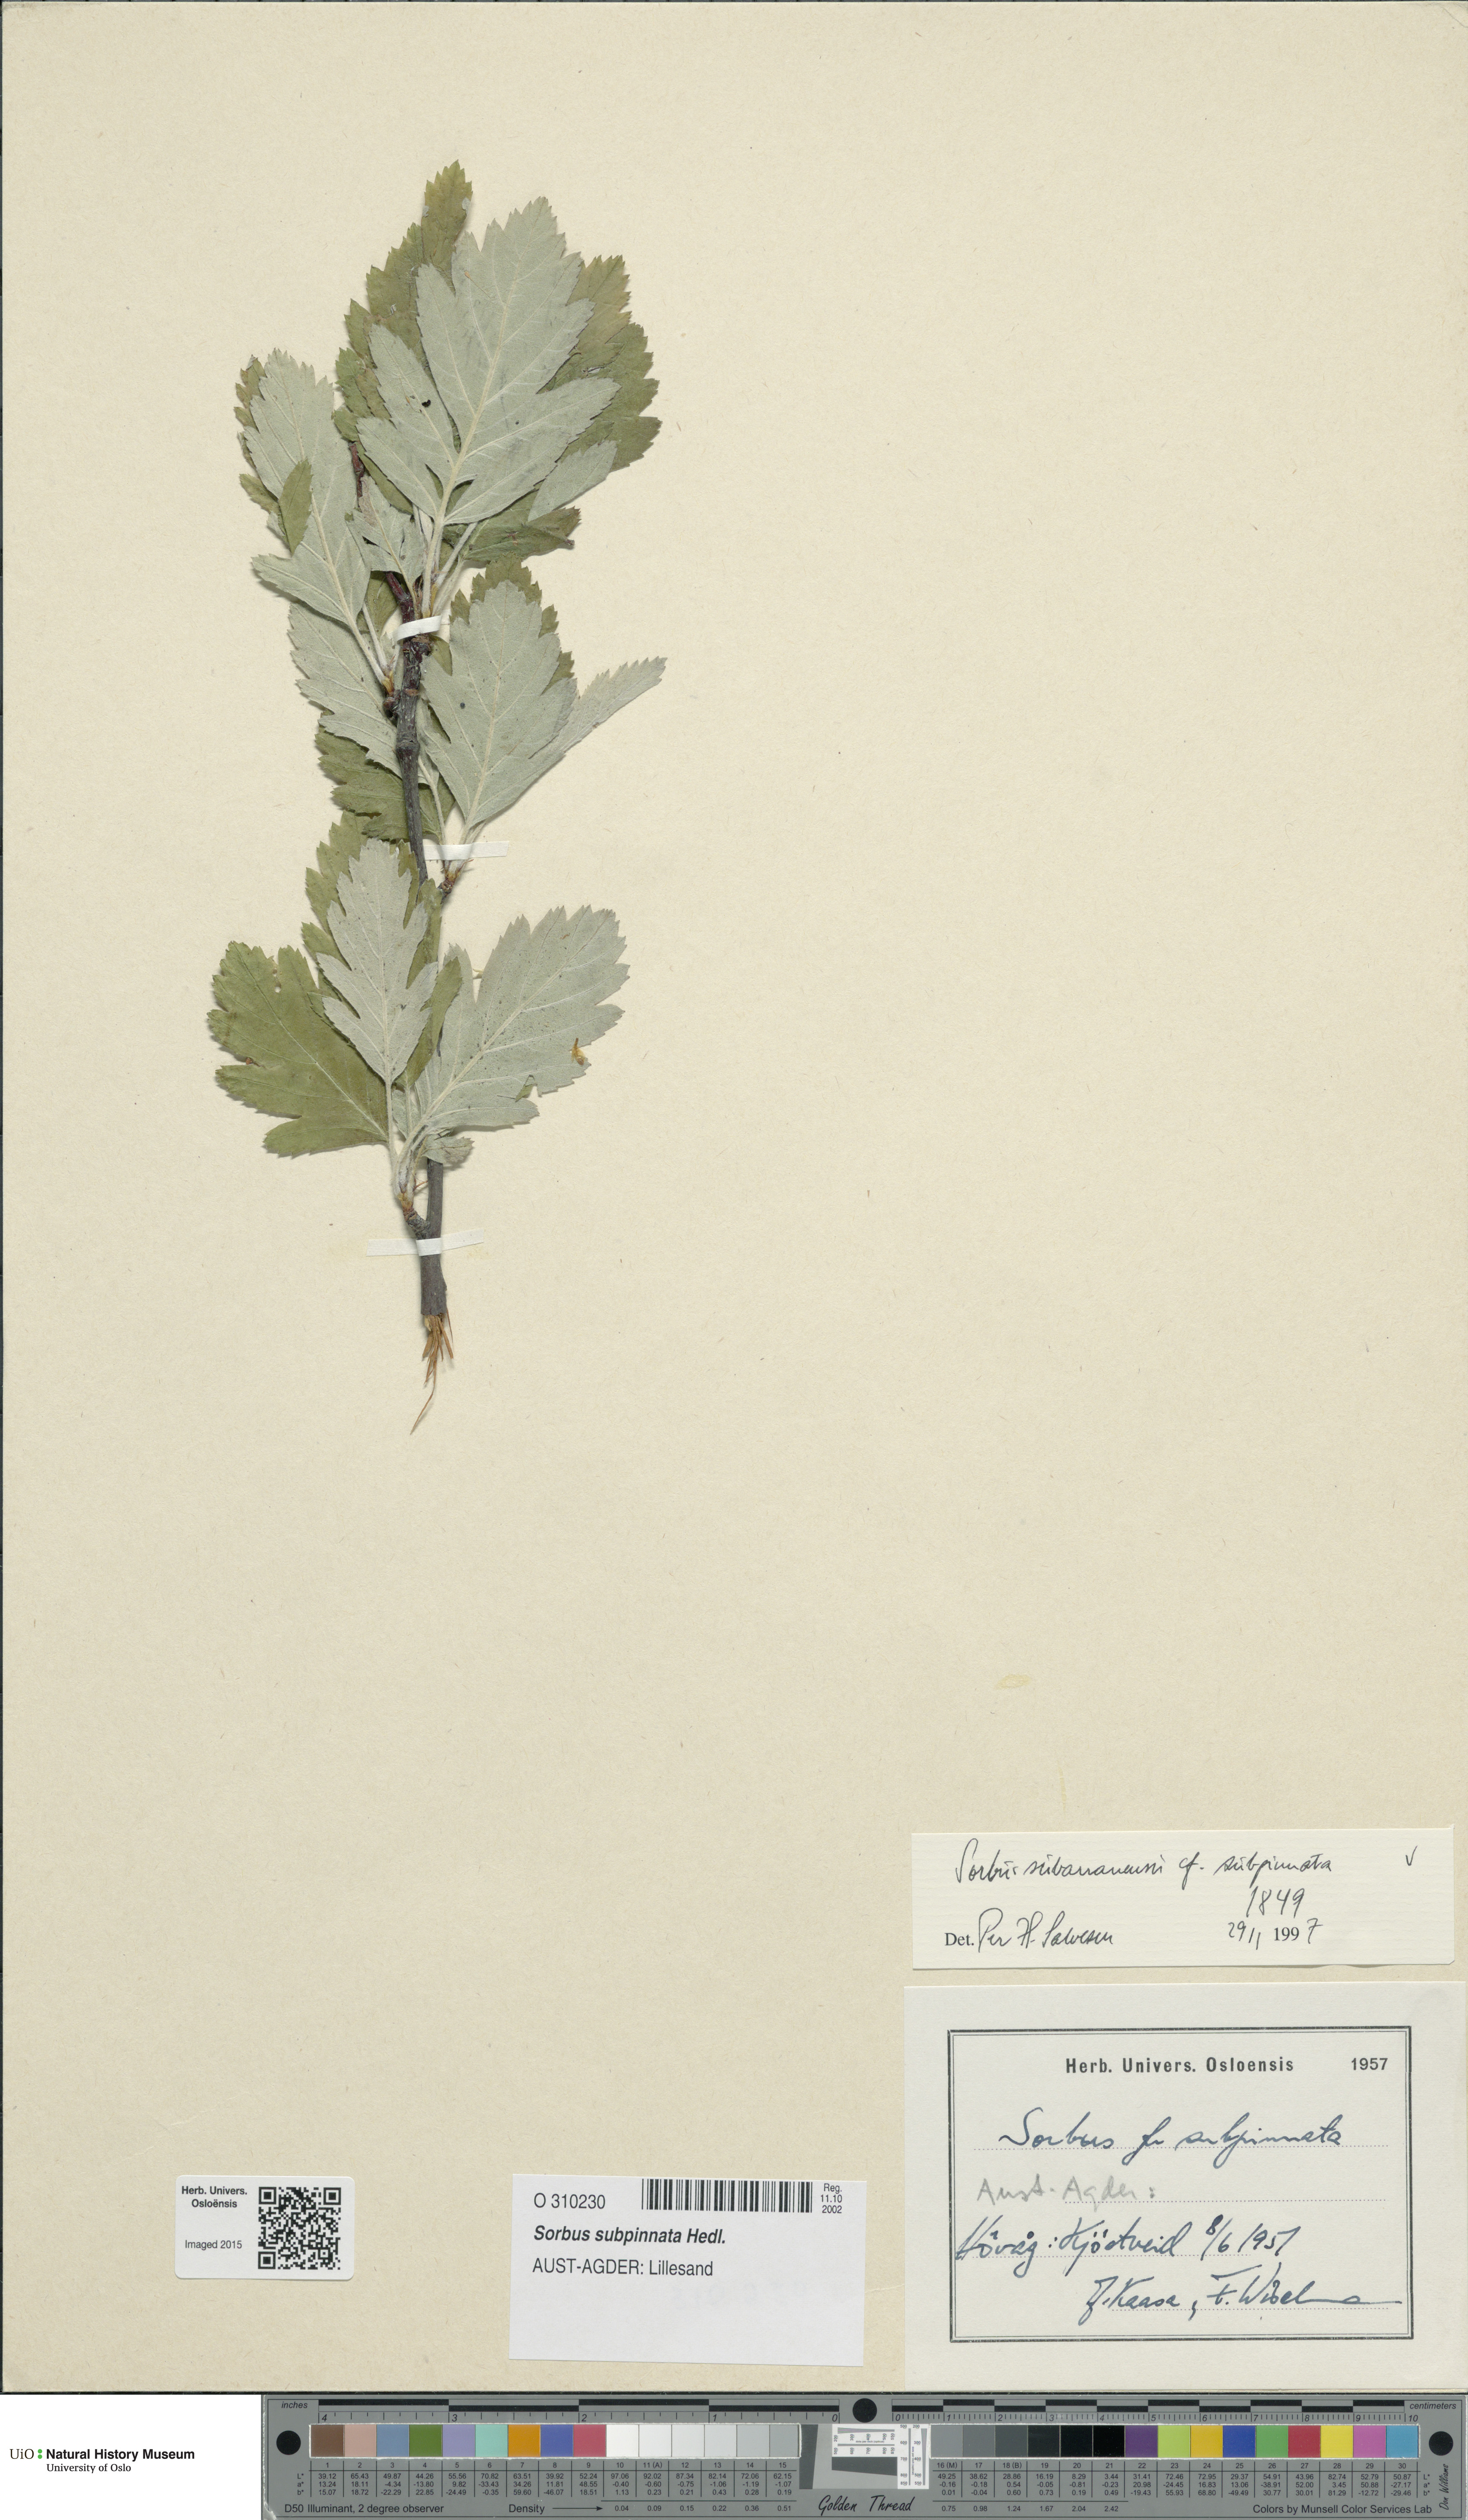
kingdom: Plantae
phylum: Tracheophyta
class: Magnoliopsida
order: Rosales
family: Rosaceae
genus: Hedlundia
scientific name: Hedlundia subpinnata
